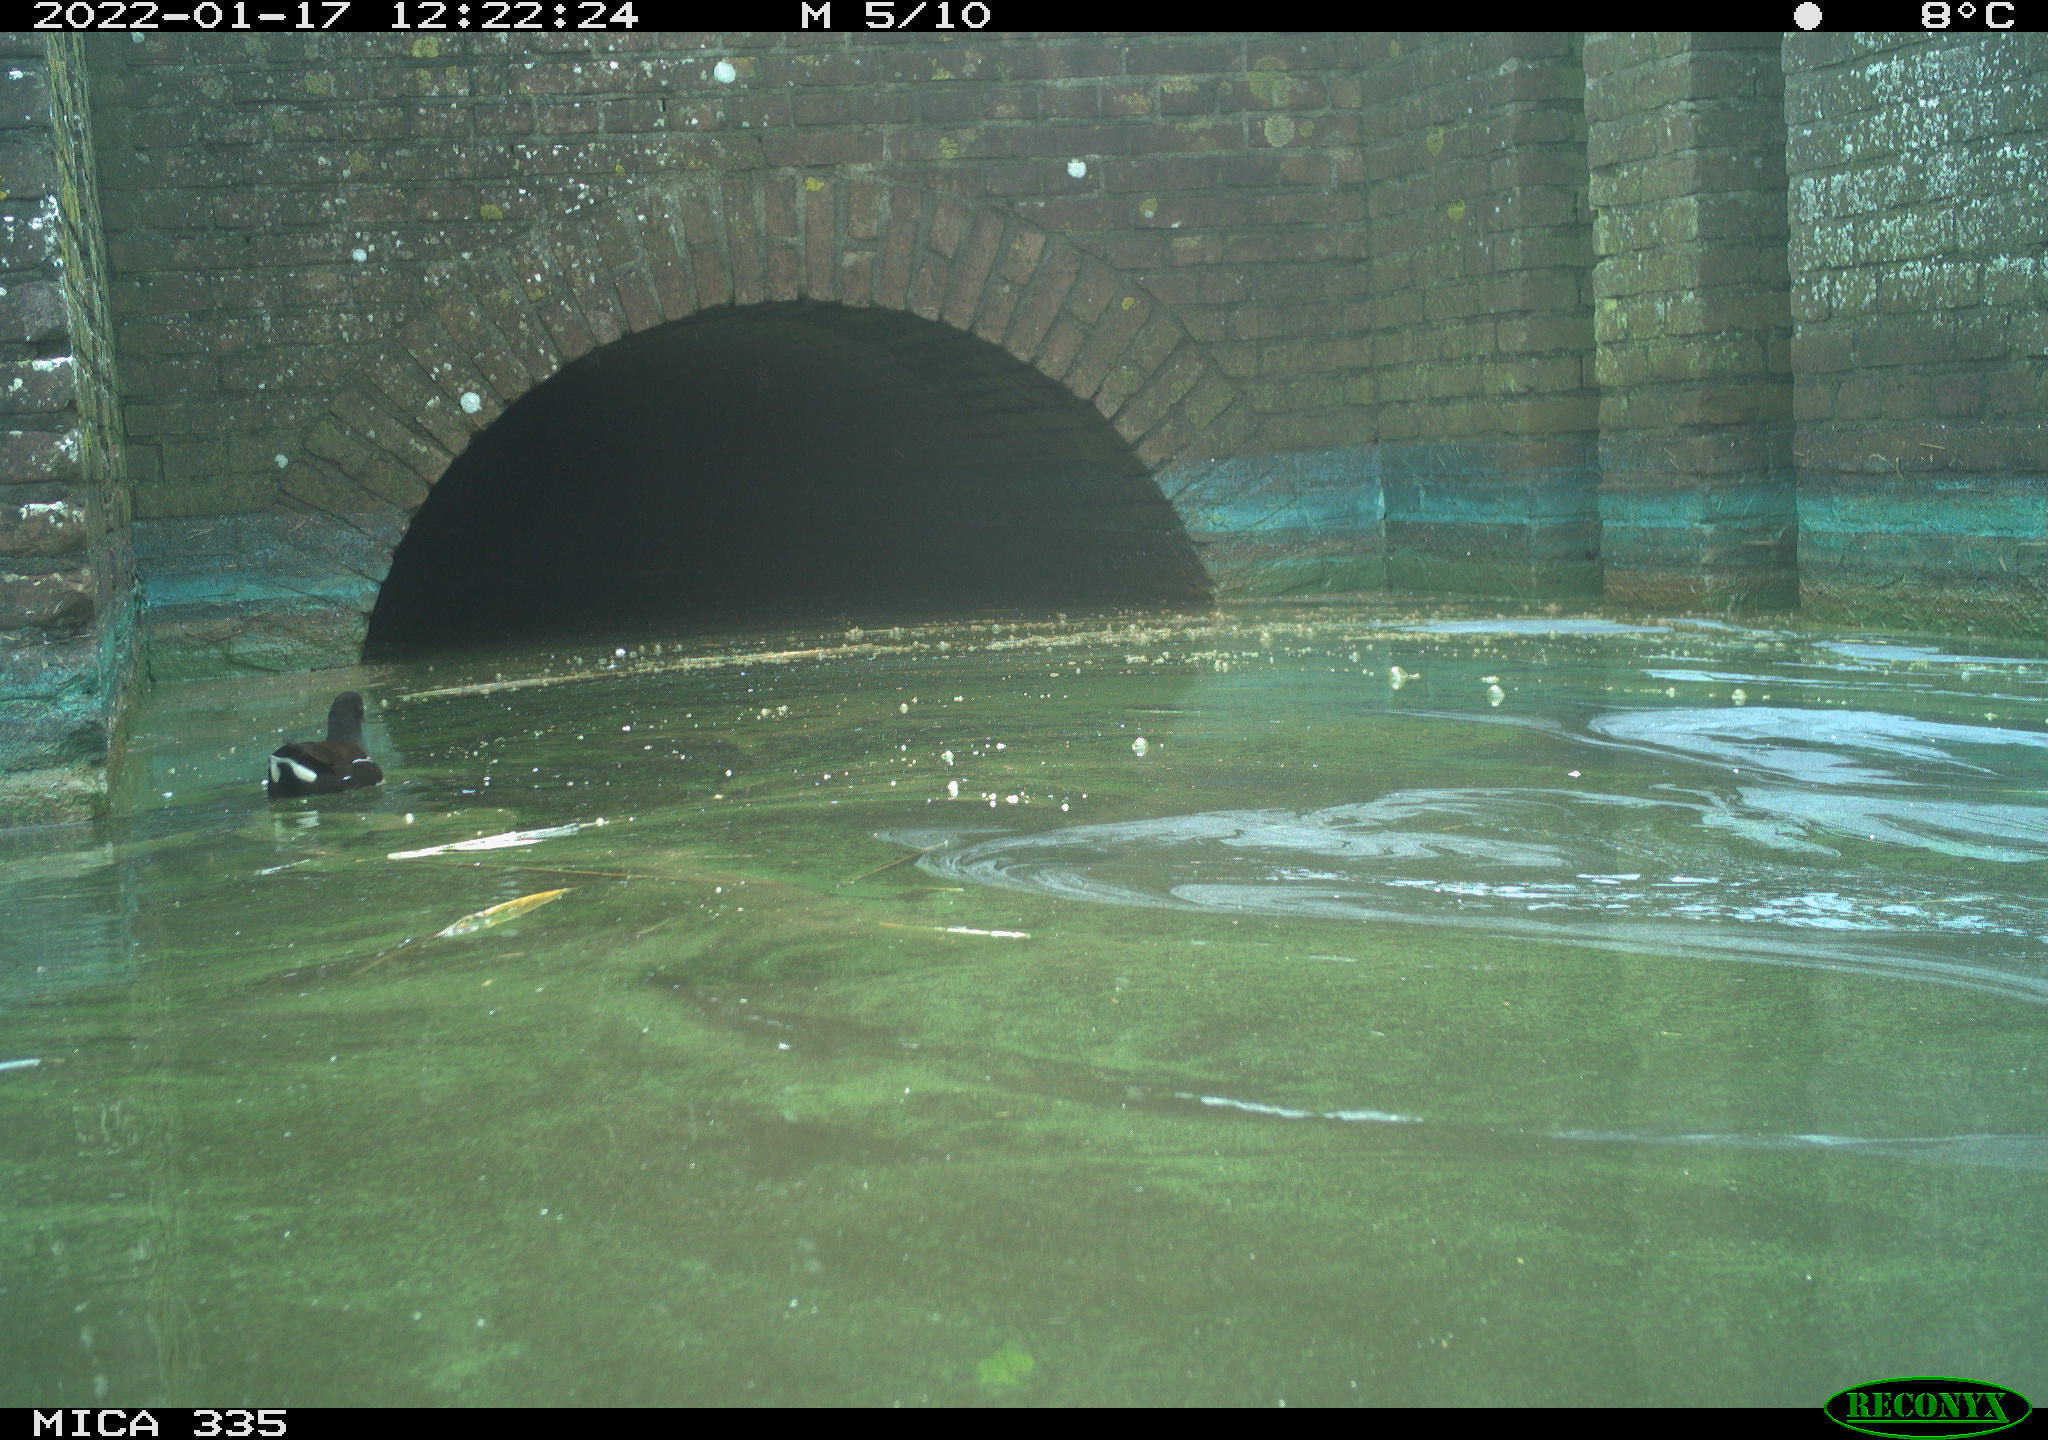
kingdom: Animalia
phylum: Chordata
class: Aves
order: Gruiformes
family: Rallidae
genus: Gallinula
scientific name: Gallinula chloropus
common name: Common moorhen
